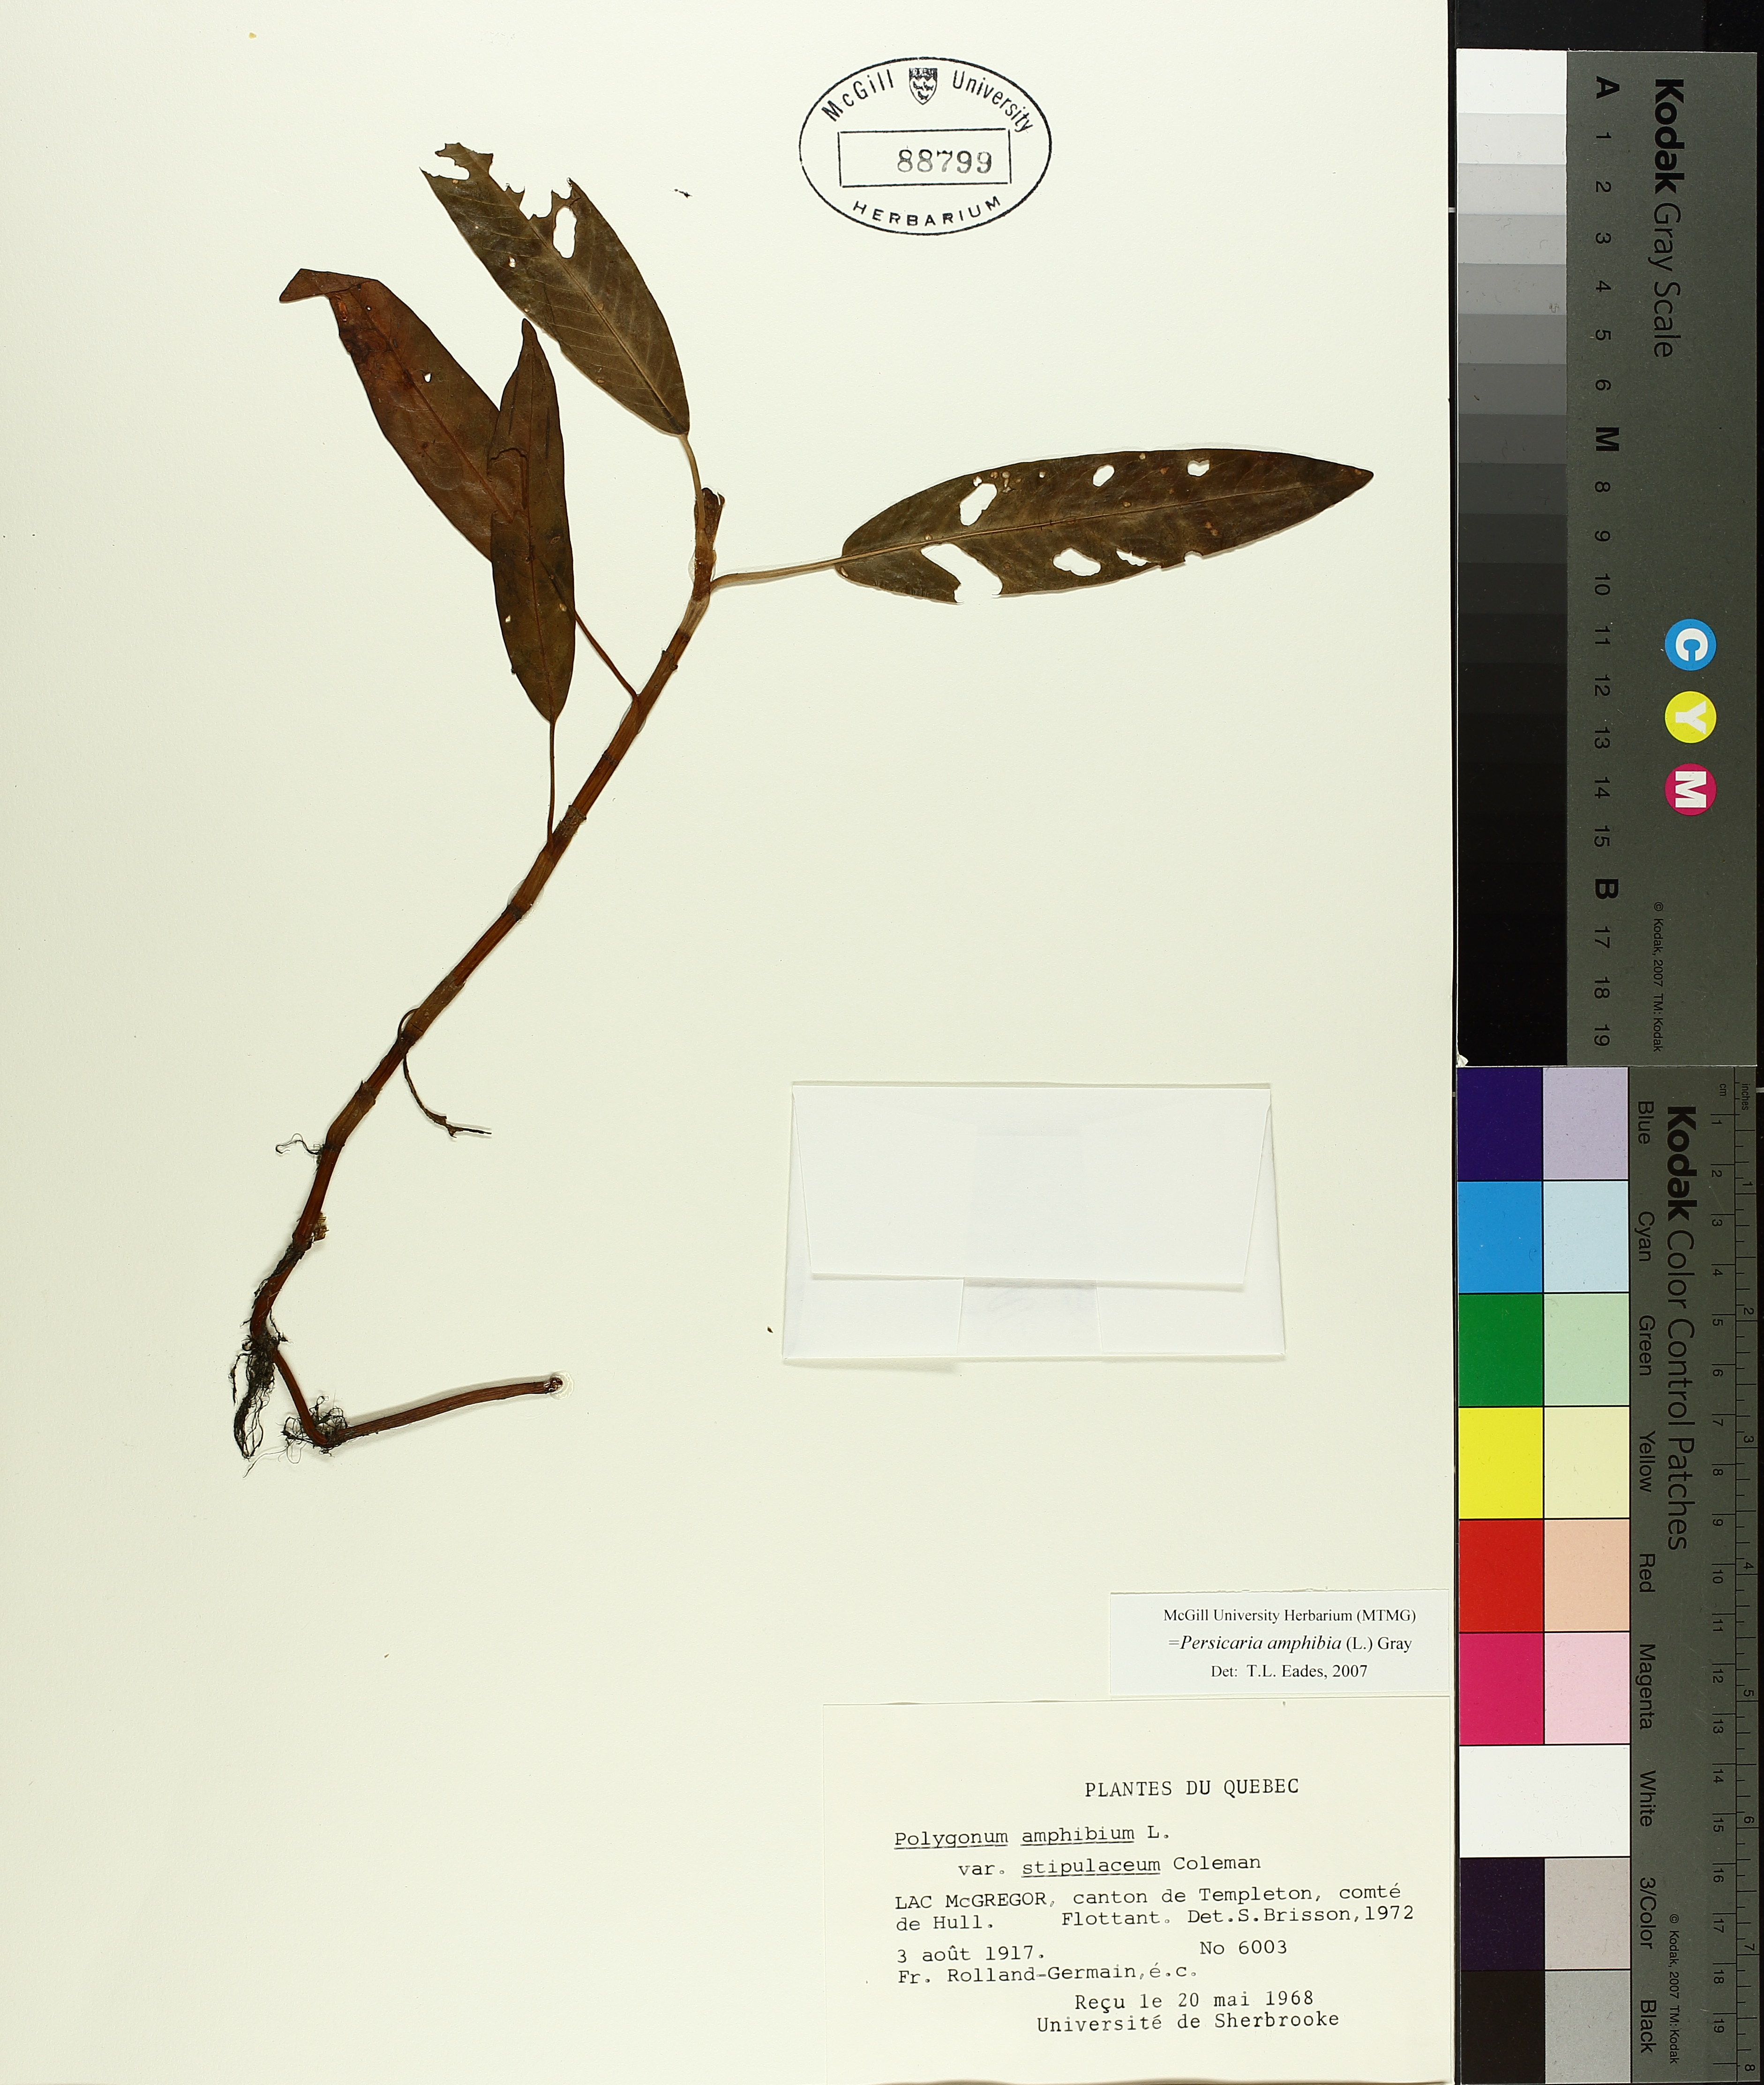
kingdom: Plantae
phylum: Tracheophyta
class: Magnoliopsida
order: Caryophyllales
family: Polygonaceae
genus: Persicaria
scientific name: Persicaria amphibia
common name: Amphibious bistort
